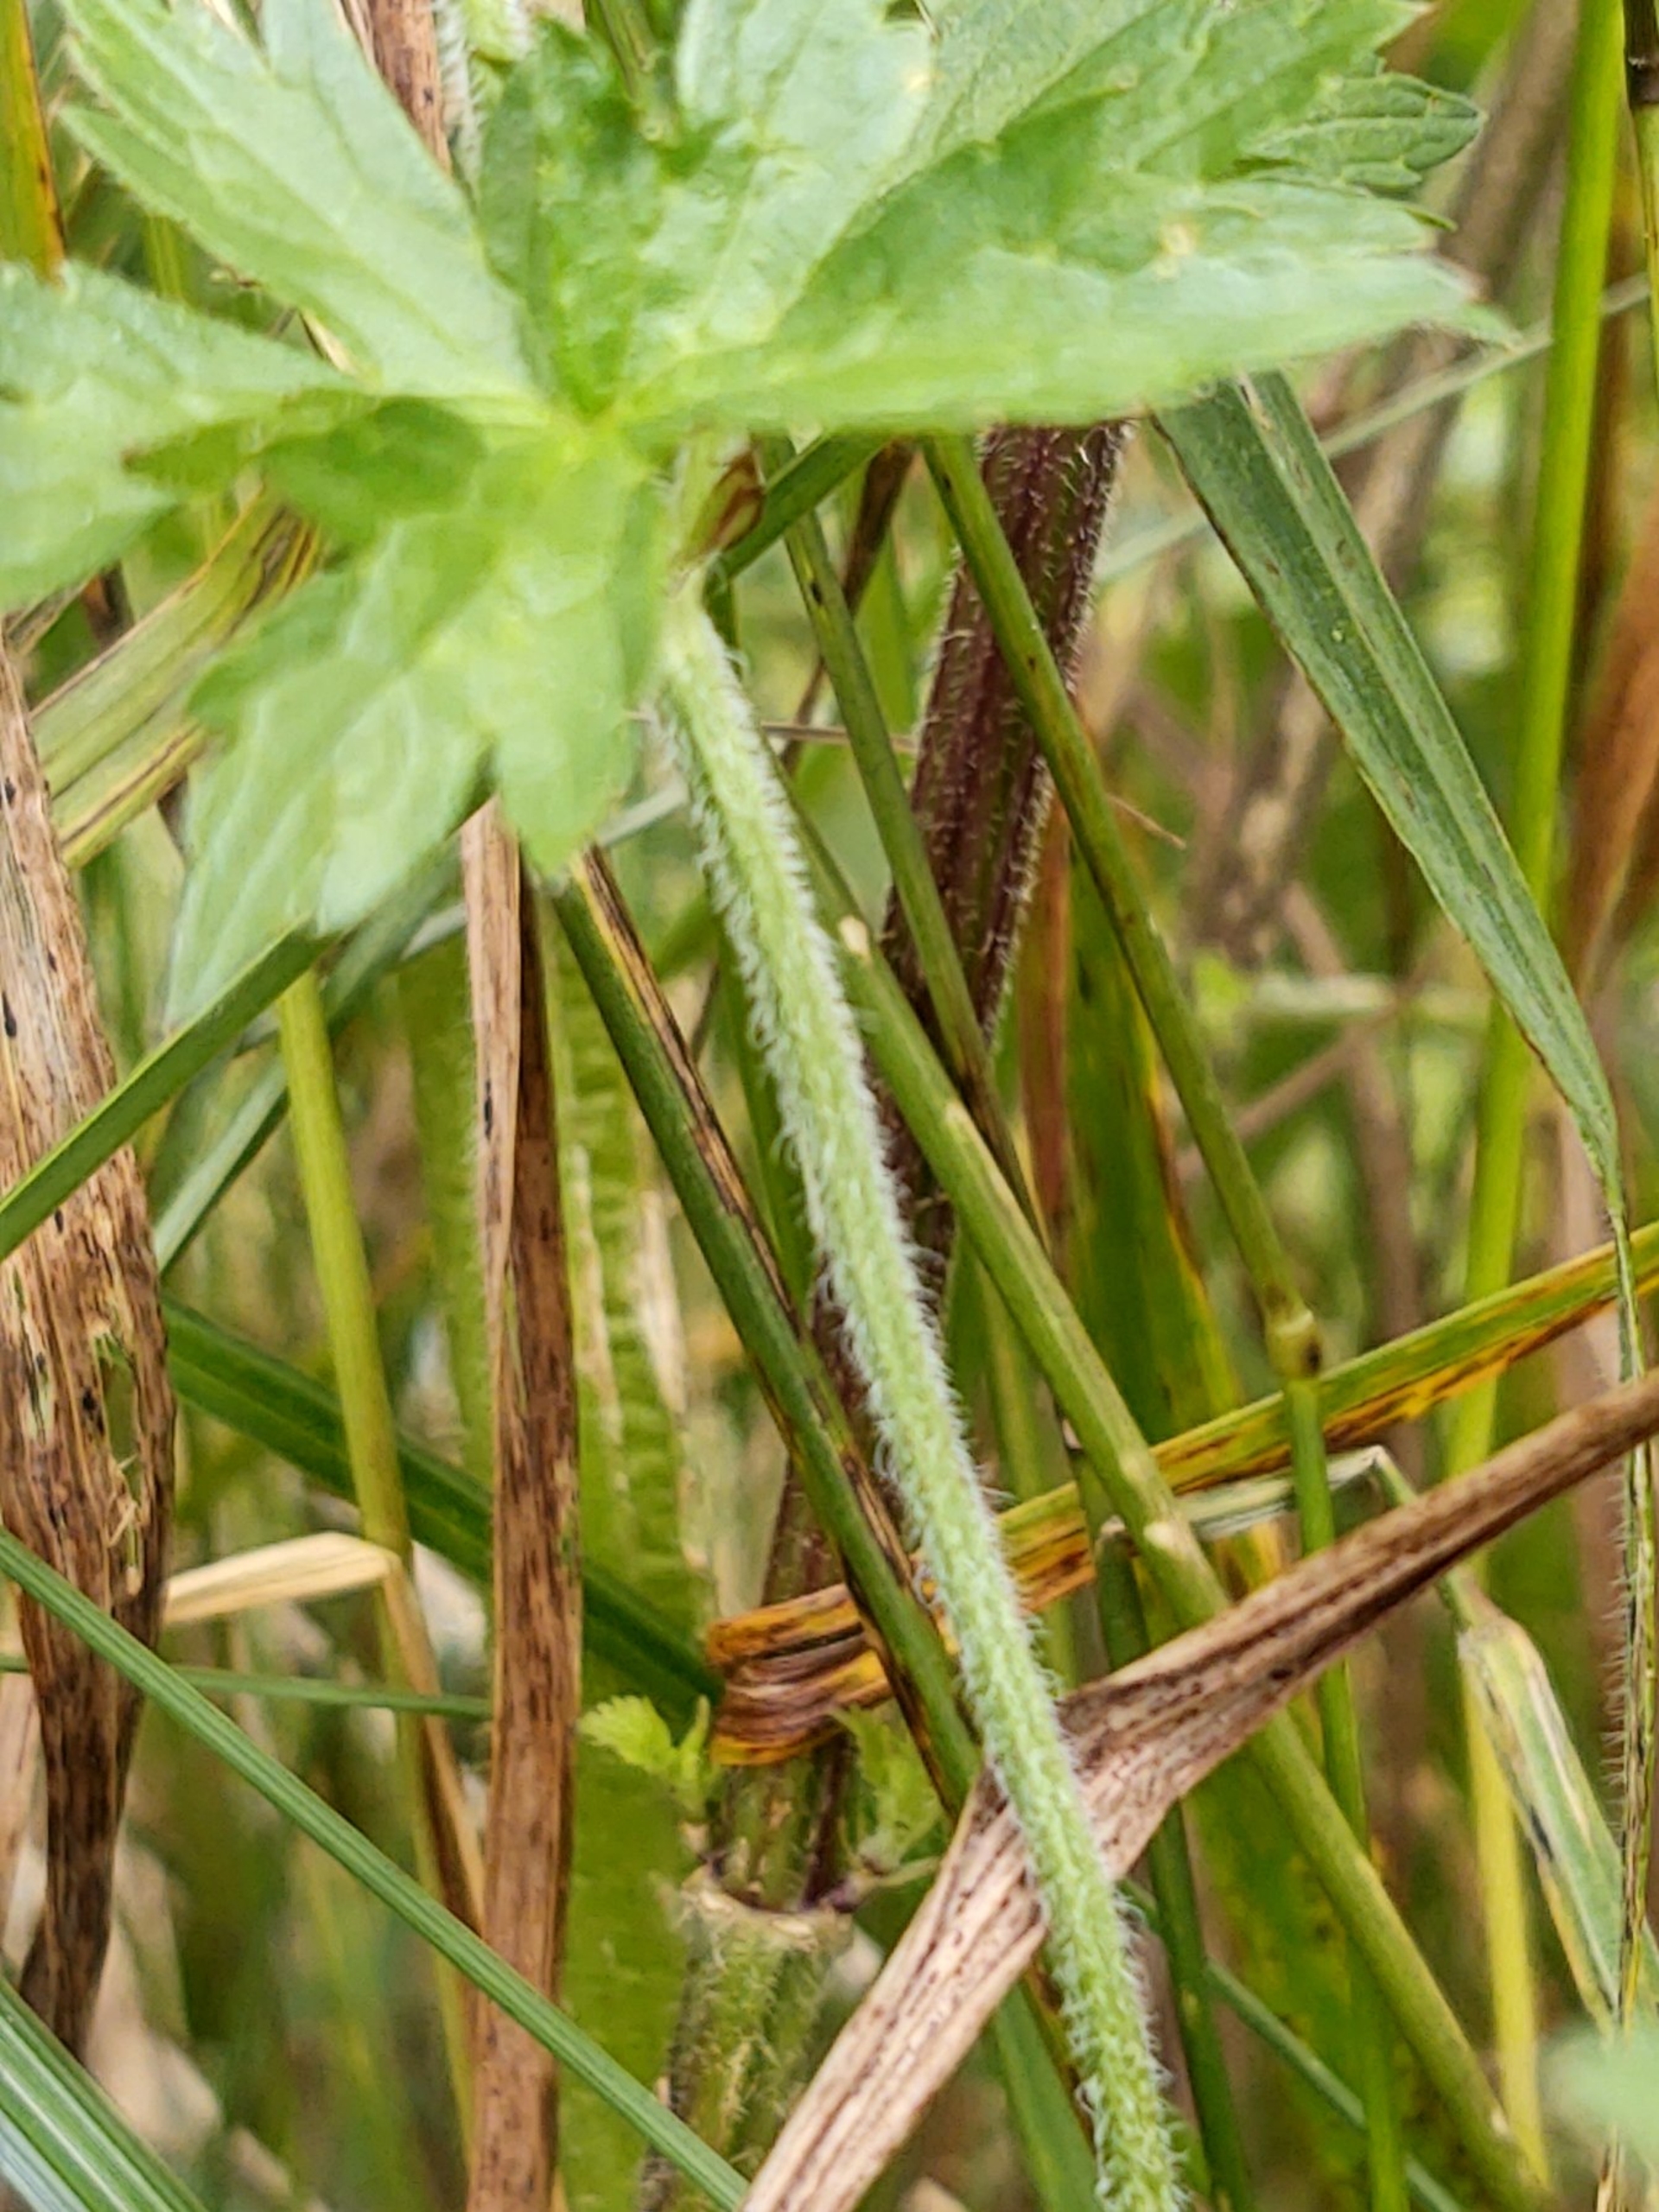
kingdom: Plantae
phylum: Tracheophyta
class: Magnoliopsida
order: Geraniales
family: Geraniaceae
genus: Geranium
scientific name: Geranium palustre
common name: Kær-storkenæb
